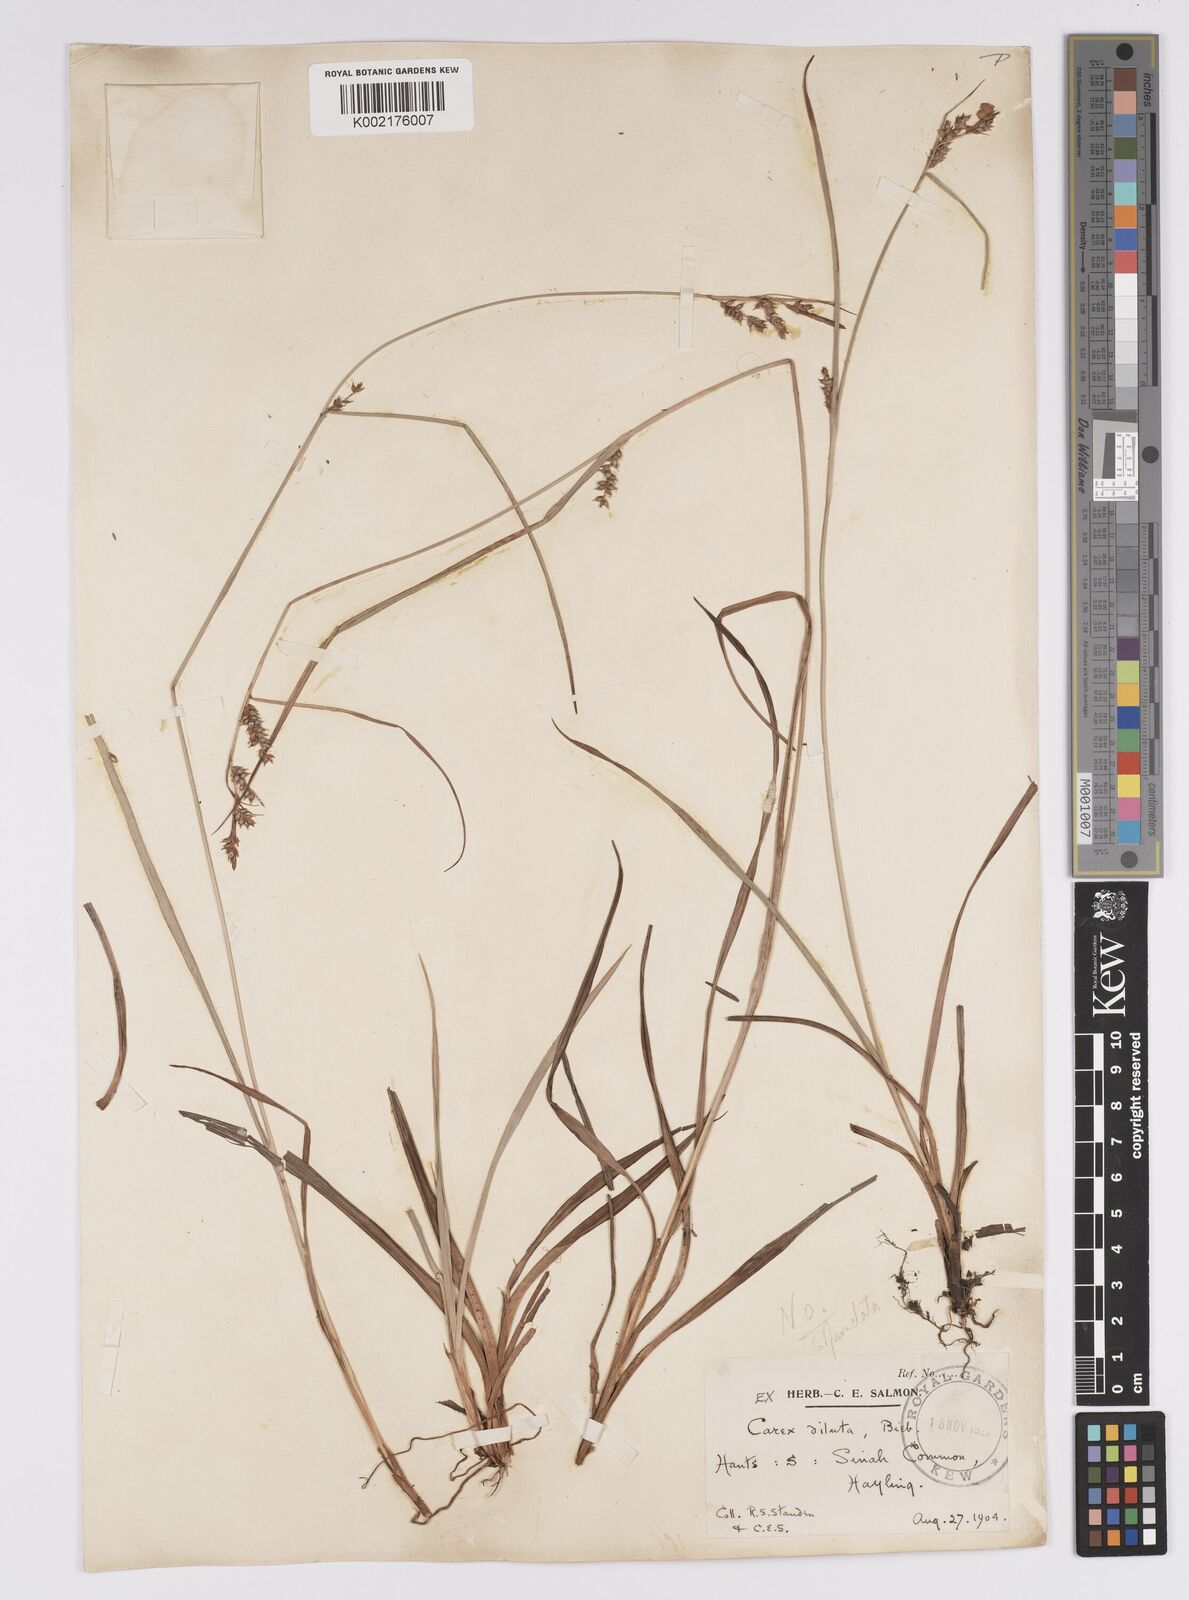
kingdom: Plantae
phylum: Tracheophyta
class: Liliopsida
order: Poales
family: Cyperaceae
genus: Carex
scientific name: Carex punctata
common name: Dotted sedge
